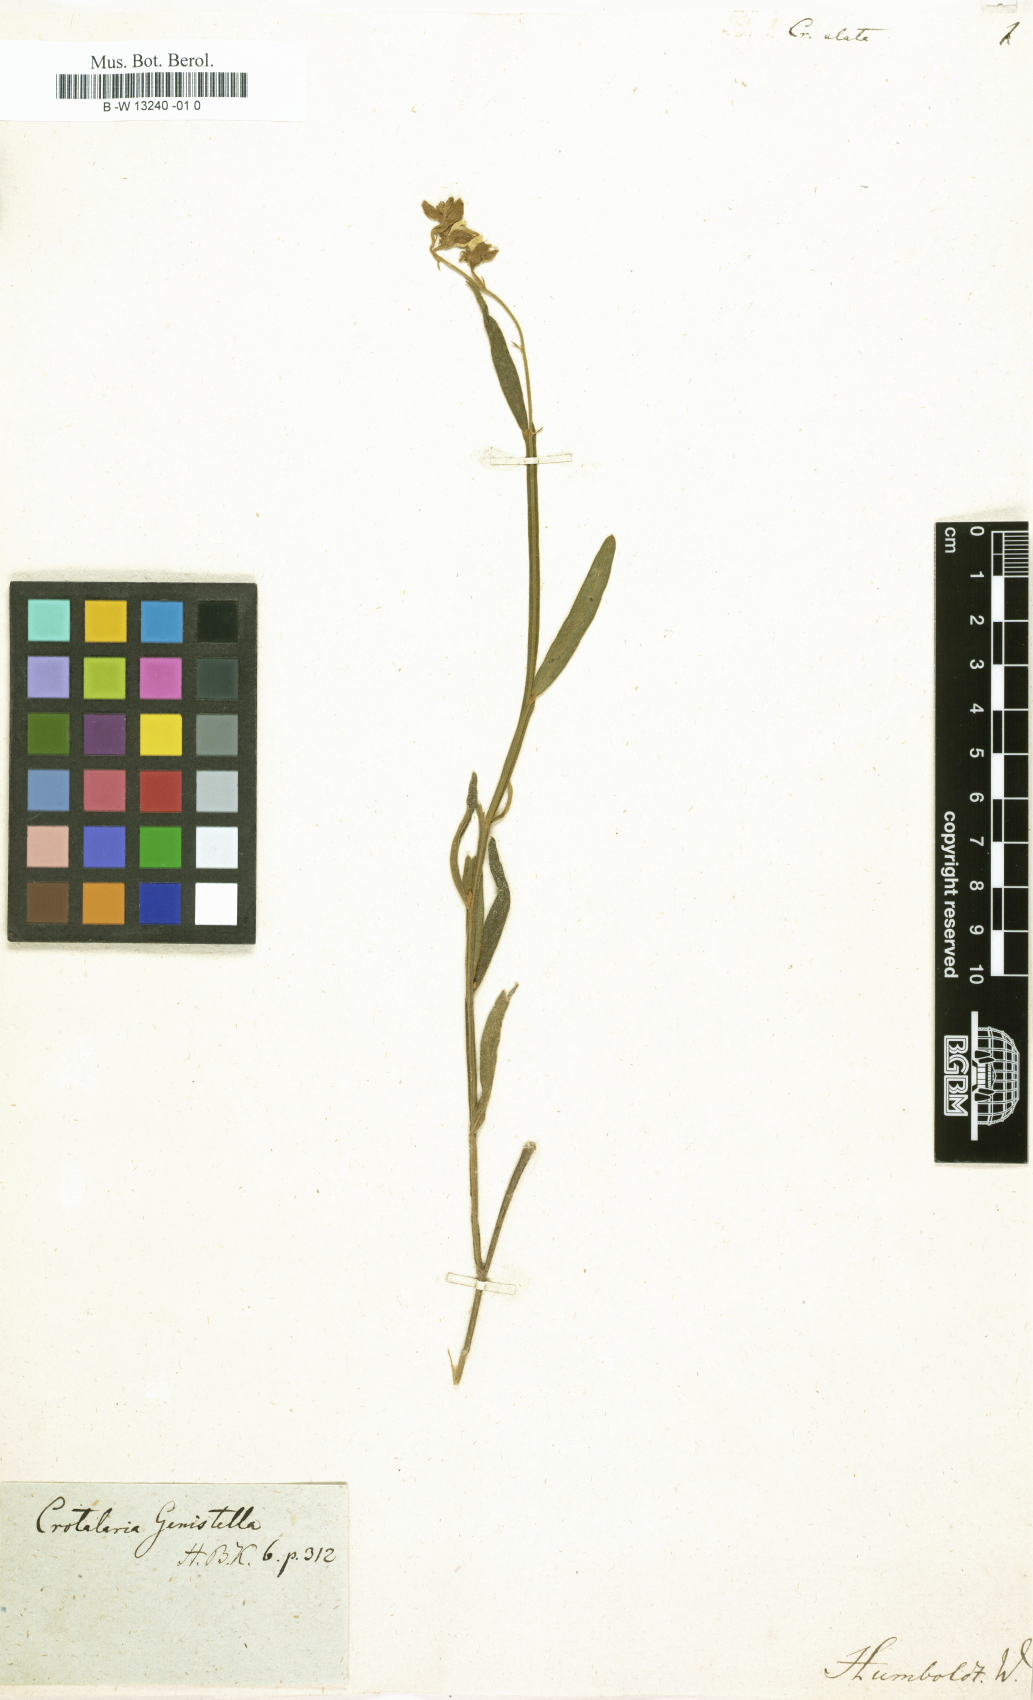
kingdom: Plantae
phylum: Tracheophyta
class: Magnoliopsida
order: Fabales
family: Fabaceae
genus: Crotalaria
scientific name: Crotalaria alata
